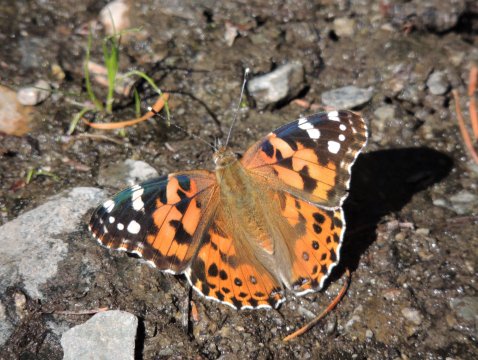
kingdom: Animalia
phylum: Arthropoda
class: Insecta
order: Lepidoptera
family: Nymphalidae
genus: Vanessa
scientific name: Vanessa cardui
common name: Painted Lady
